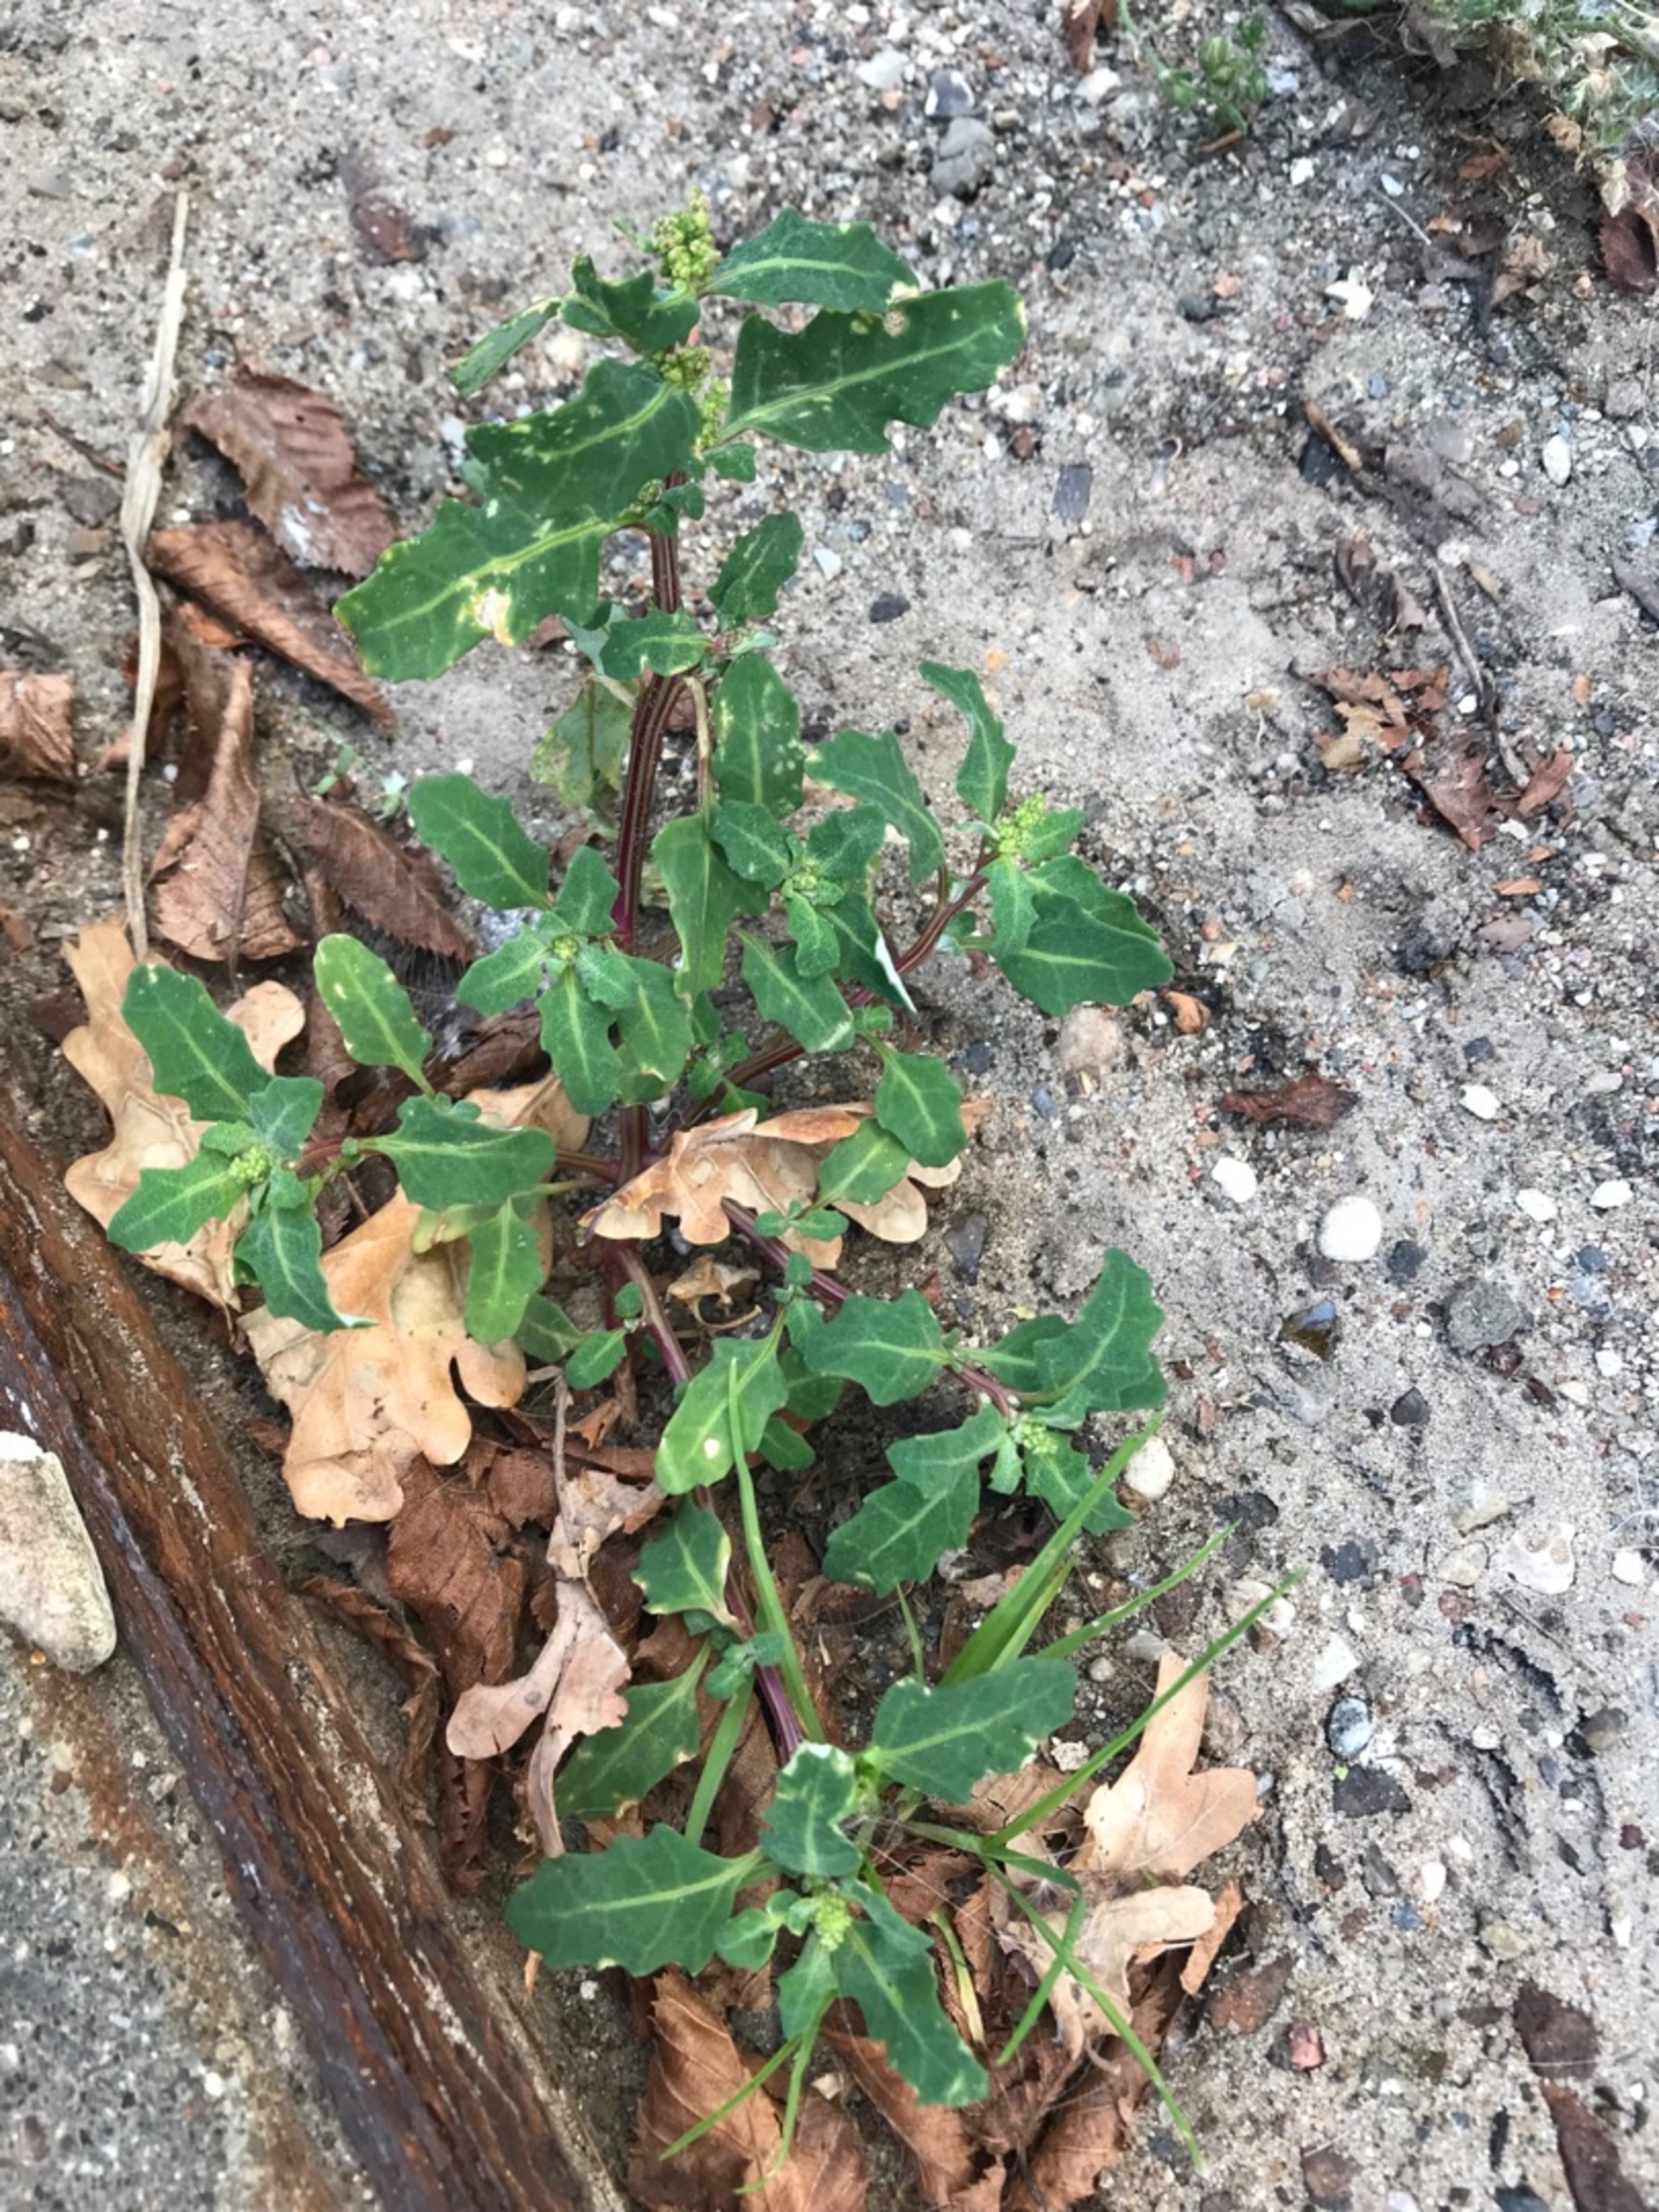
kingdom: Plantae
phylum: Tracheophyta
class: Magnoliopsida
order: Caryophyllales
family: Amaranthaceae
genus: Oxybasis
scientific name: Oxybasis glauca
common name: Blågrøn gåsefod
